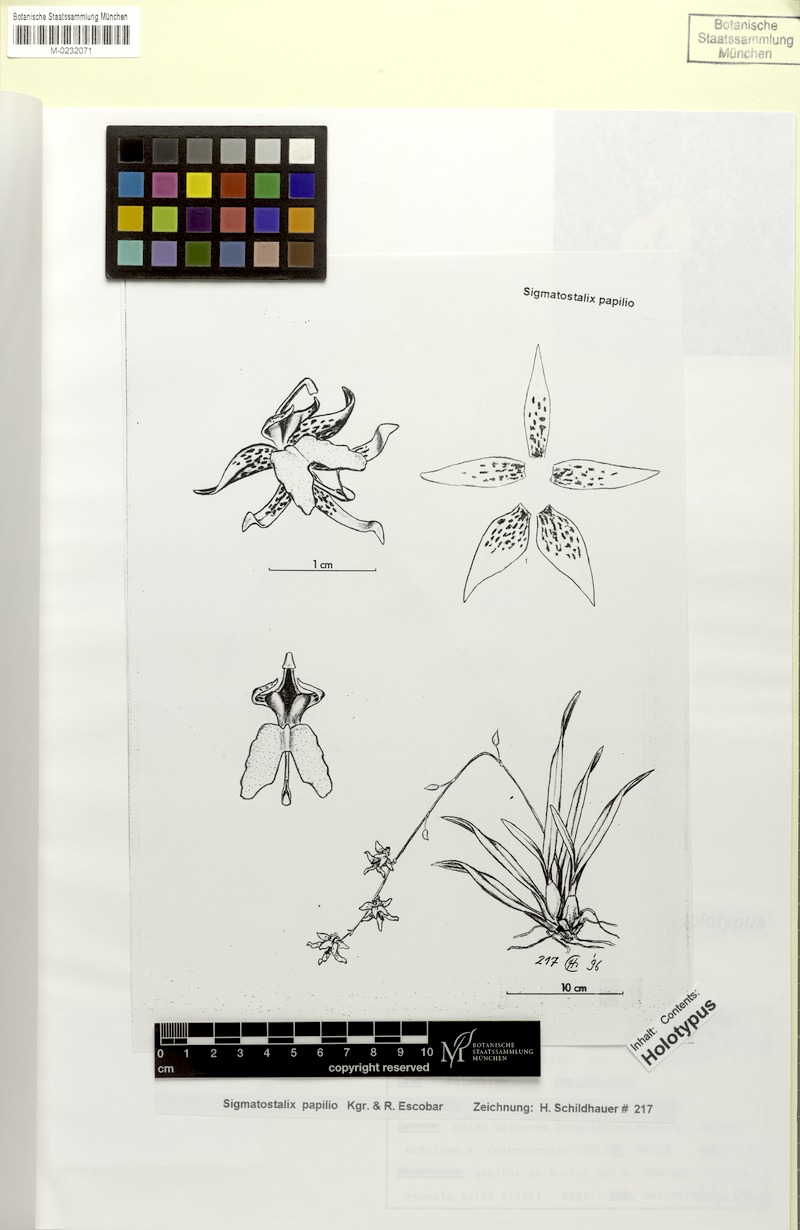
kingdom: Plantae
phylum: Tracheophyta
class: Liliopsida
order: Asparagales
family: Orchidaceae
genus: Oncidium
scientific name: Oncidium papilioides
